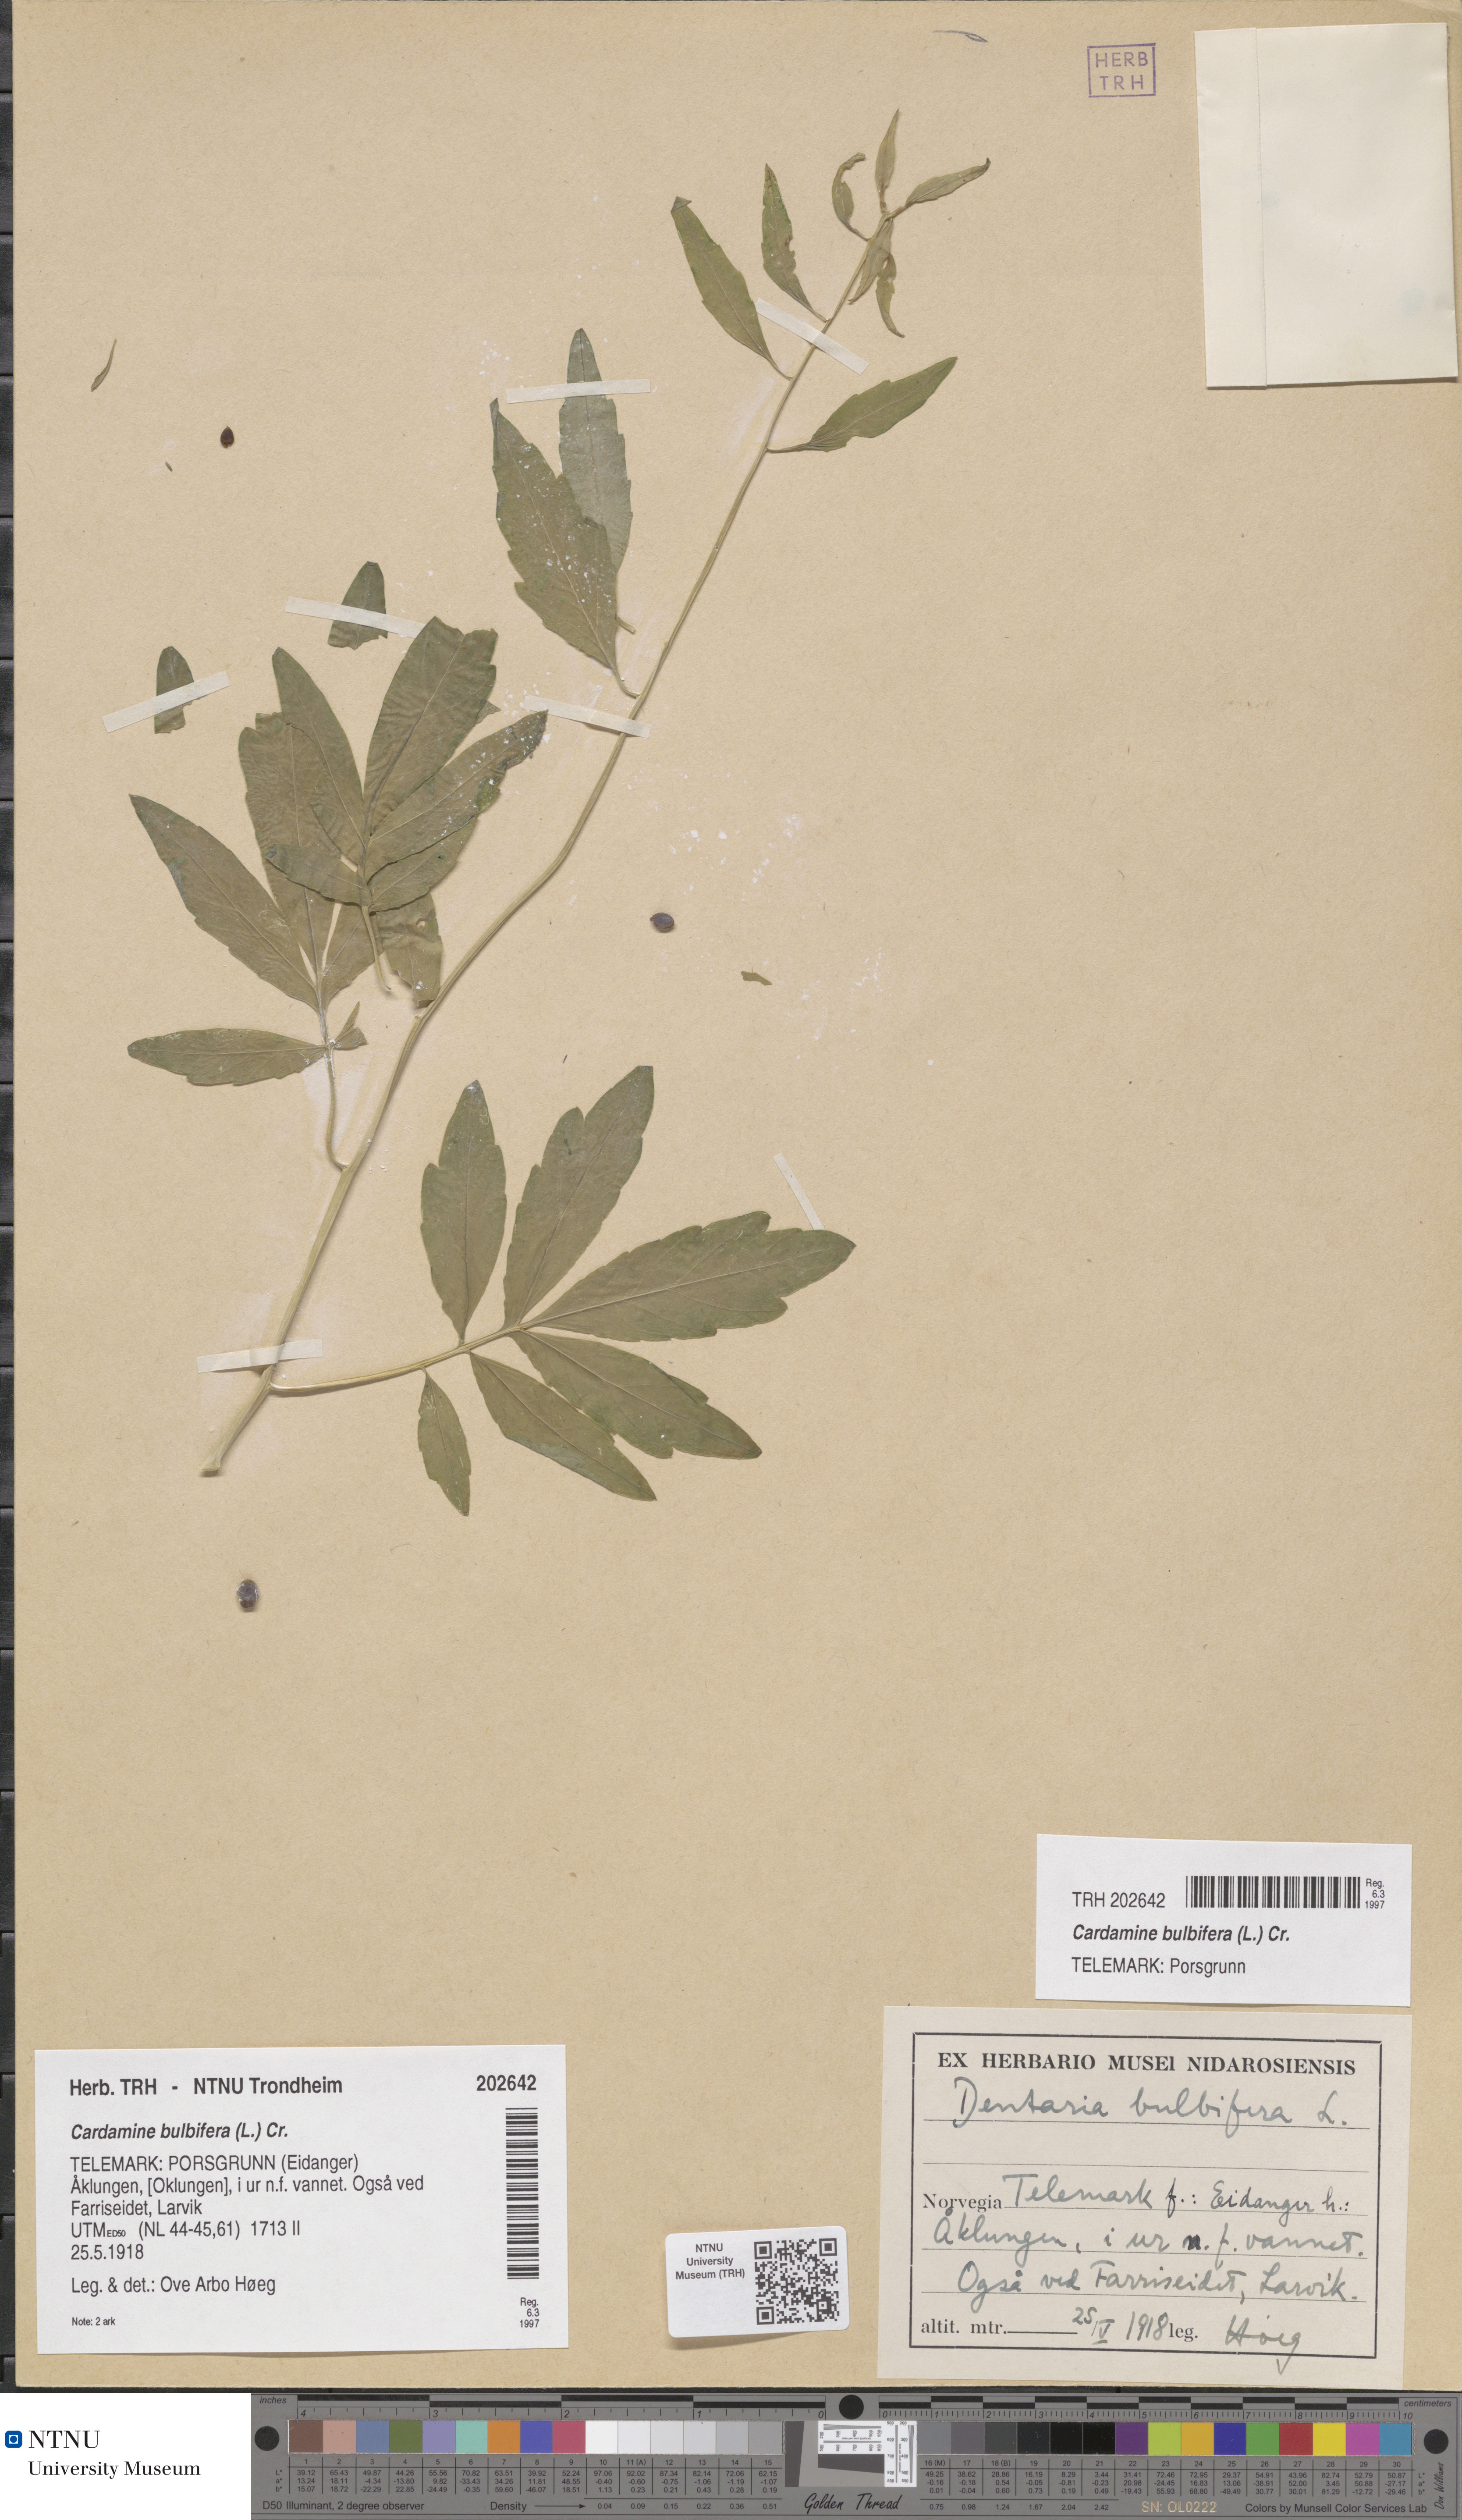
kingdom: Plantae
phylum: Tracheophyta
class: Magnoliopsida
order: Brassicales
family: Brassicaceae
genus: Cardamine
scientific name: Cardamine bulbifera
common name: Coralroot bittercress
